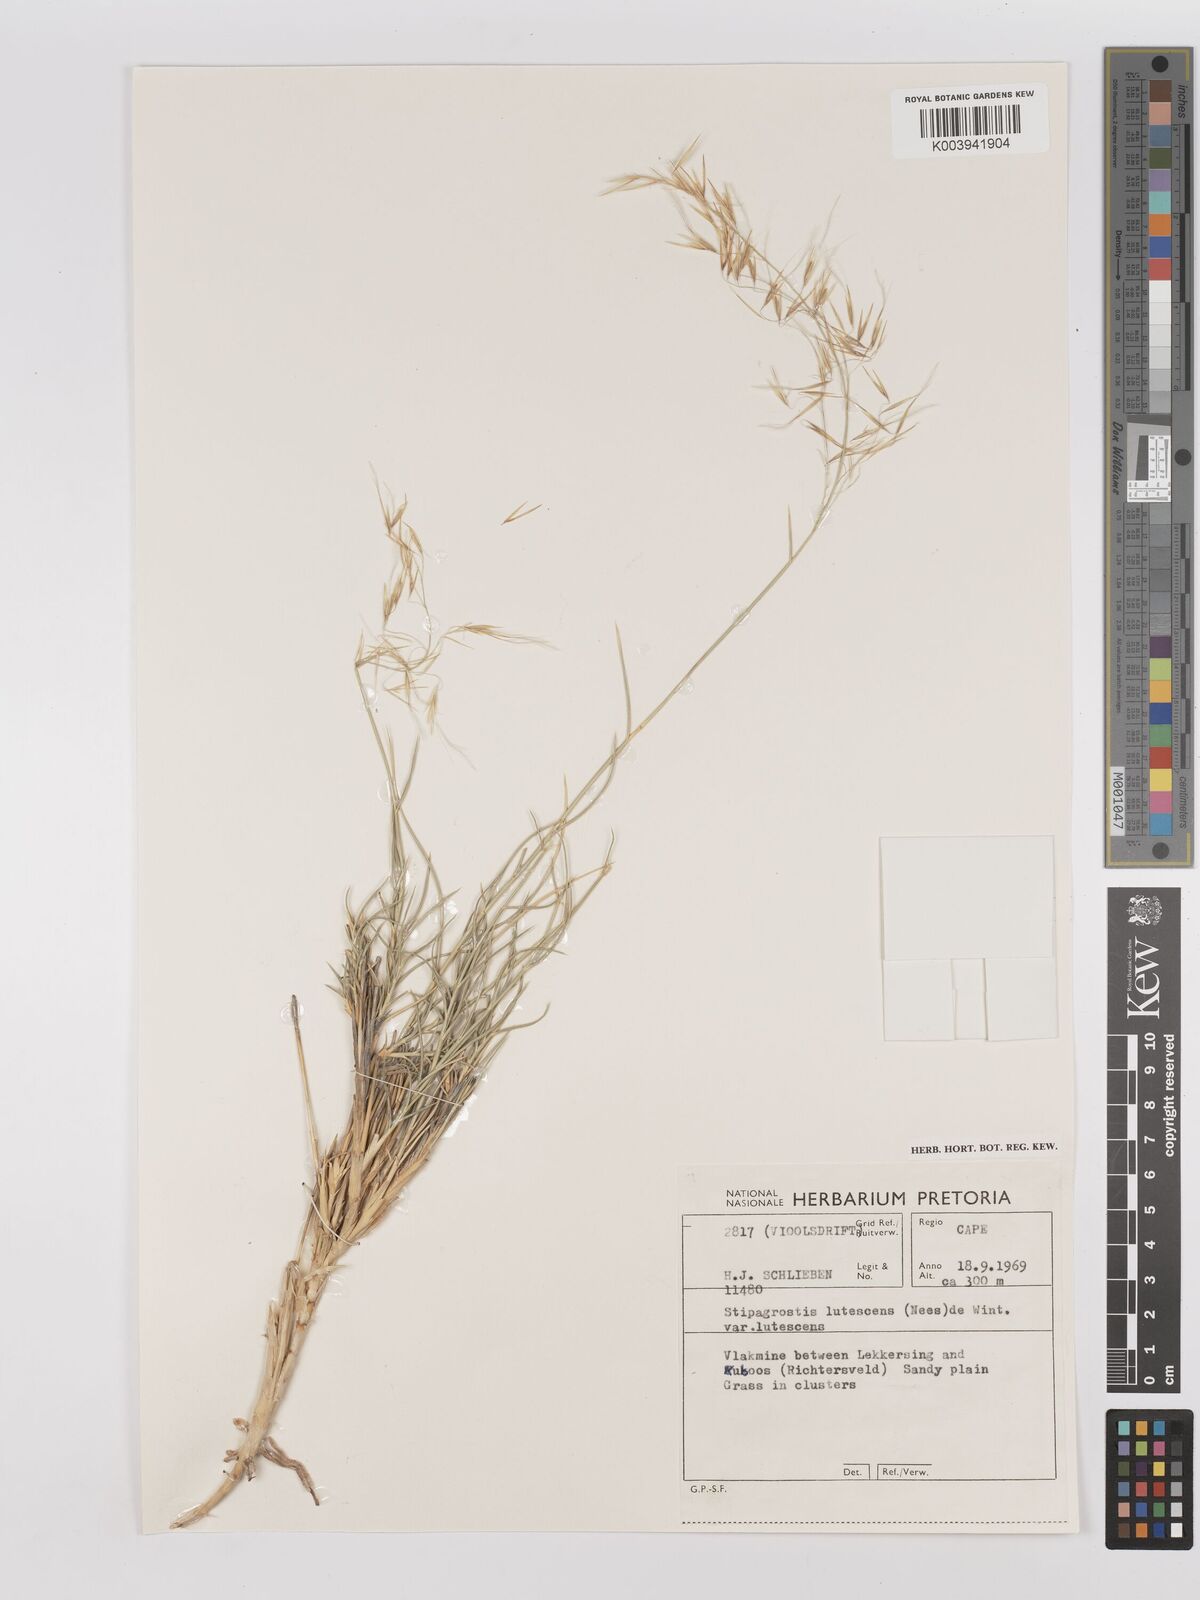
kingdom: Plantae
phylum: Tracheophyta
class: Liliopsida
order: Poales
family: Poaceae
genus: Stipagrostis
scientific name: Stipagrostis lutescens
